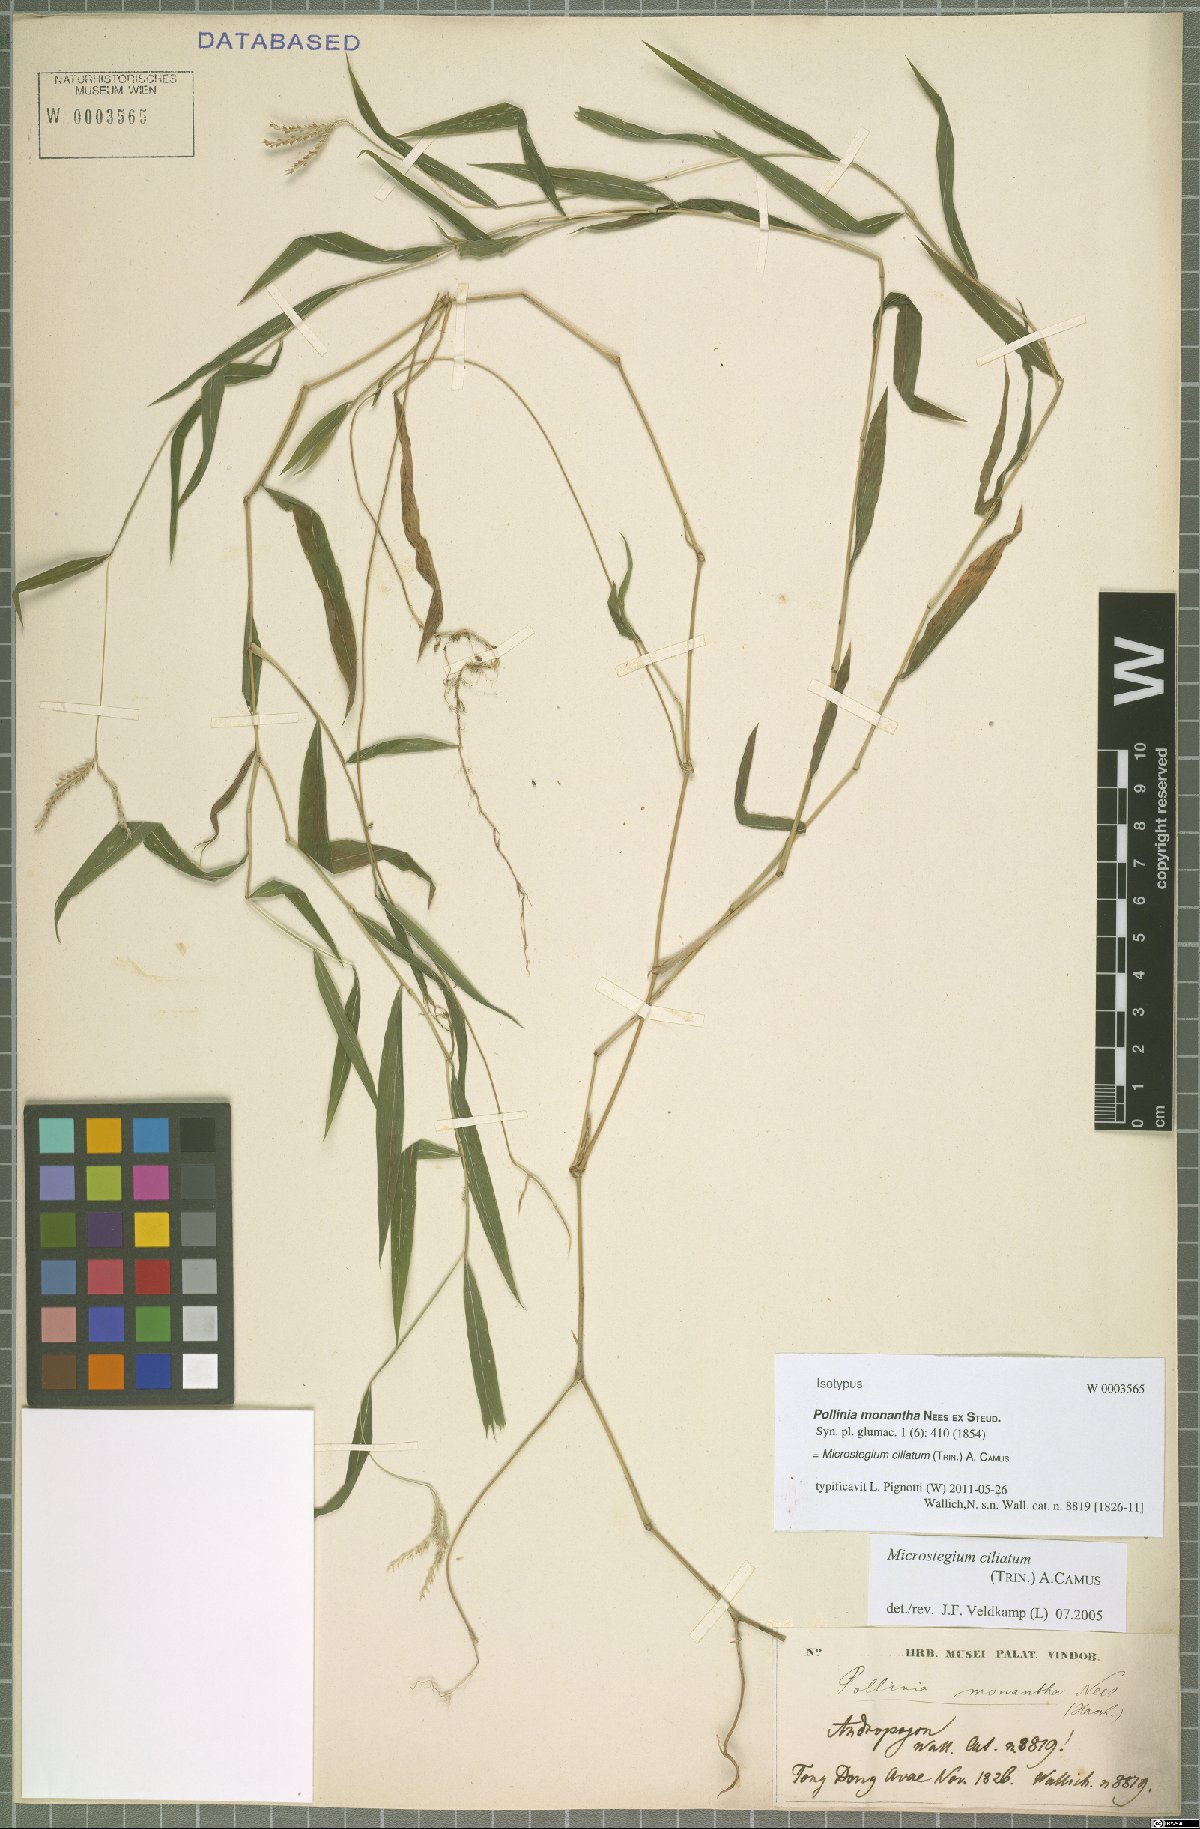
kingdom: Plantae
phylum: Tracheophyta
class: Liliopsida
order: Poales
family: Poaceae
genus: Microstegium
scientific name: Microstegium fasciculatum
